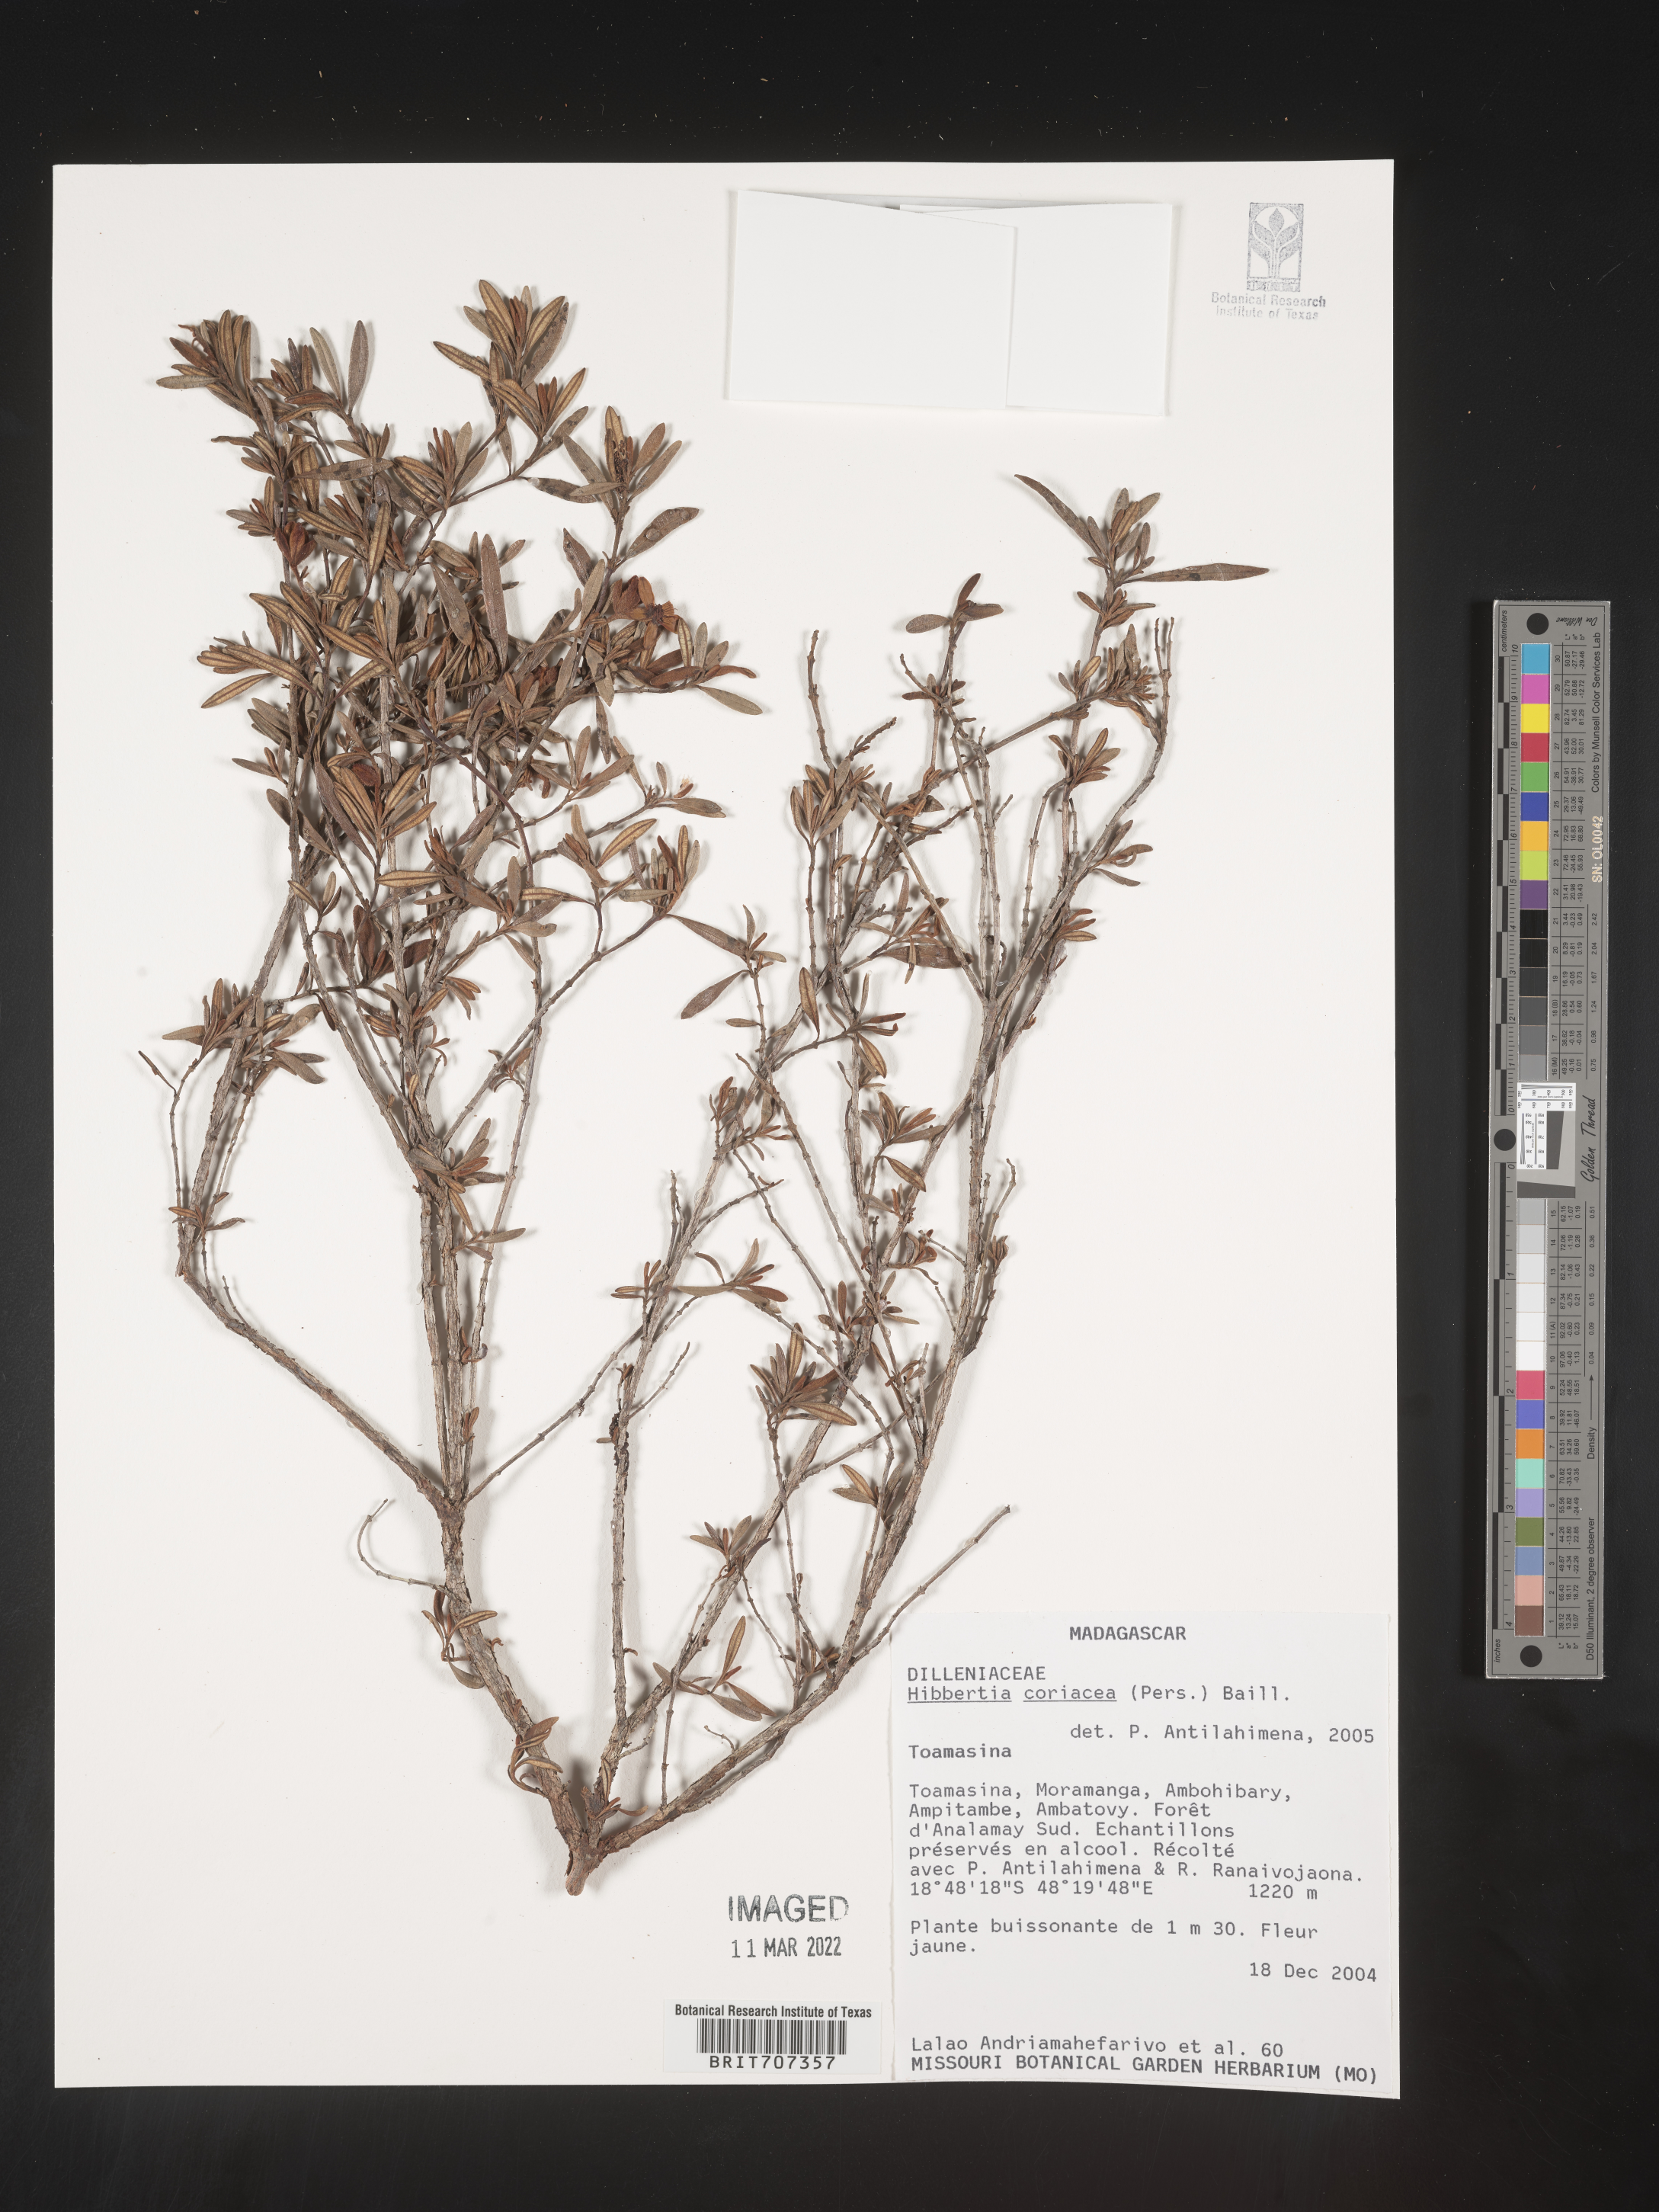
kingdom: Plantae
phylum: Tracheophyta
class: Magnoliopsida
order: Dilleniales
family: Dilleniaceae
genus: Hibbertia
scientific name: Hibbertia
